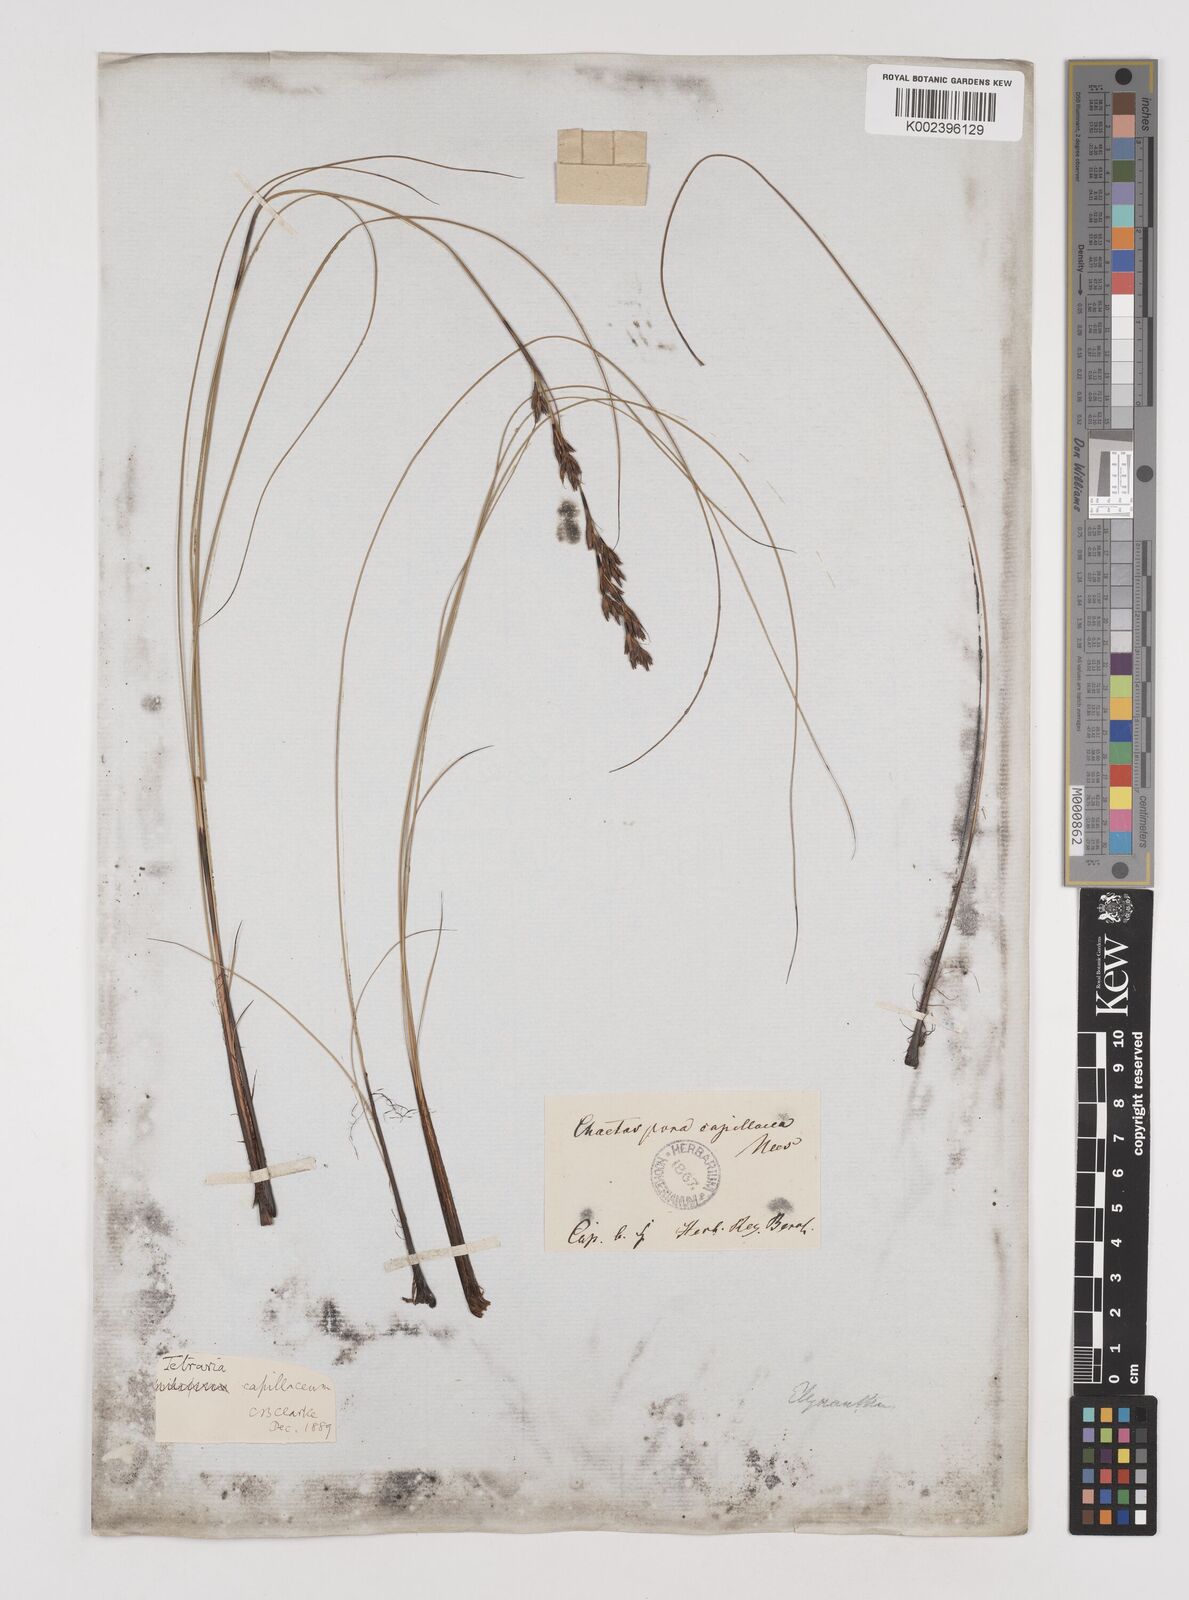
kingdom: Plantae
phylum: Tracheophyta
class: Liliopsida
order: Poales
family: Cyperaceae
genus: Tetraria
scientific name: Tetraria capillacea
